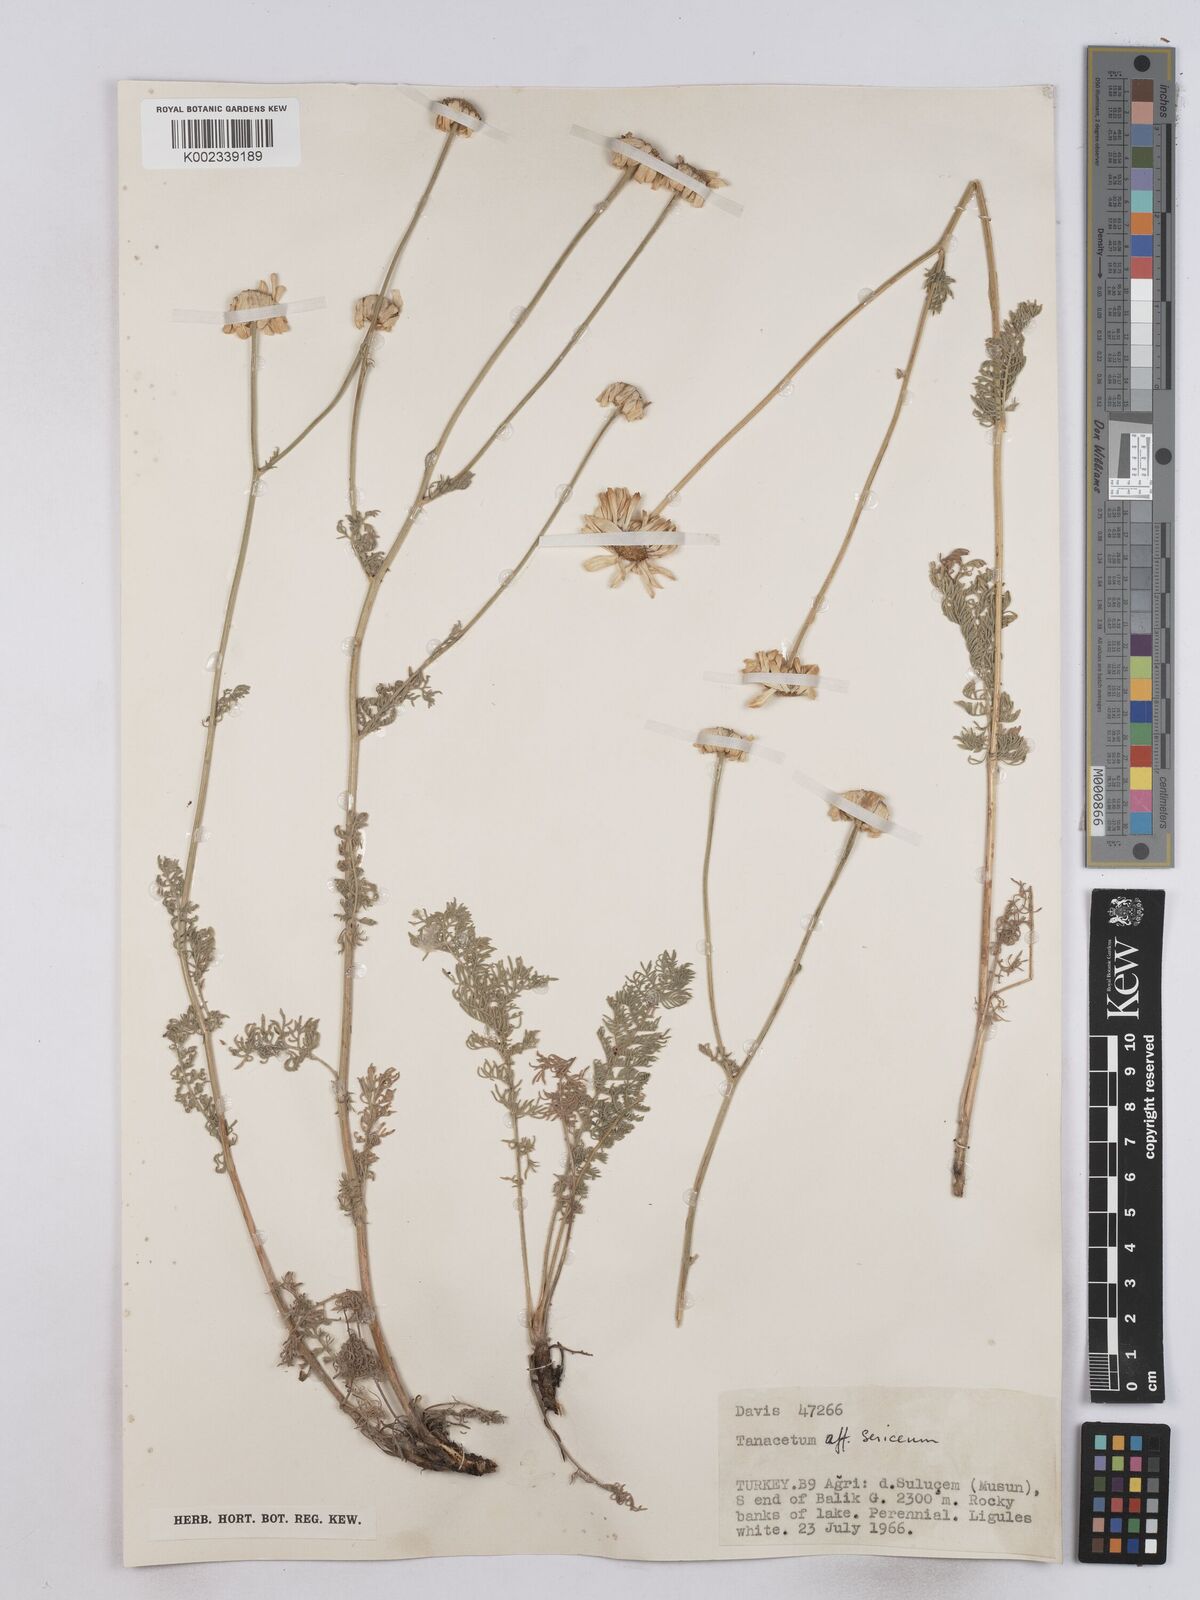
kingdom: Plantae
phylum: Tracheophyta
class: Magnoliopsida
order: Asterales
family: Asteraceae
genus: Tanacetum
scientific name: Tanacetum sericeum
